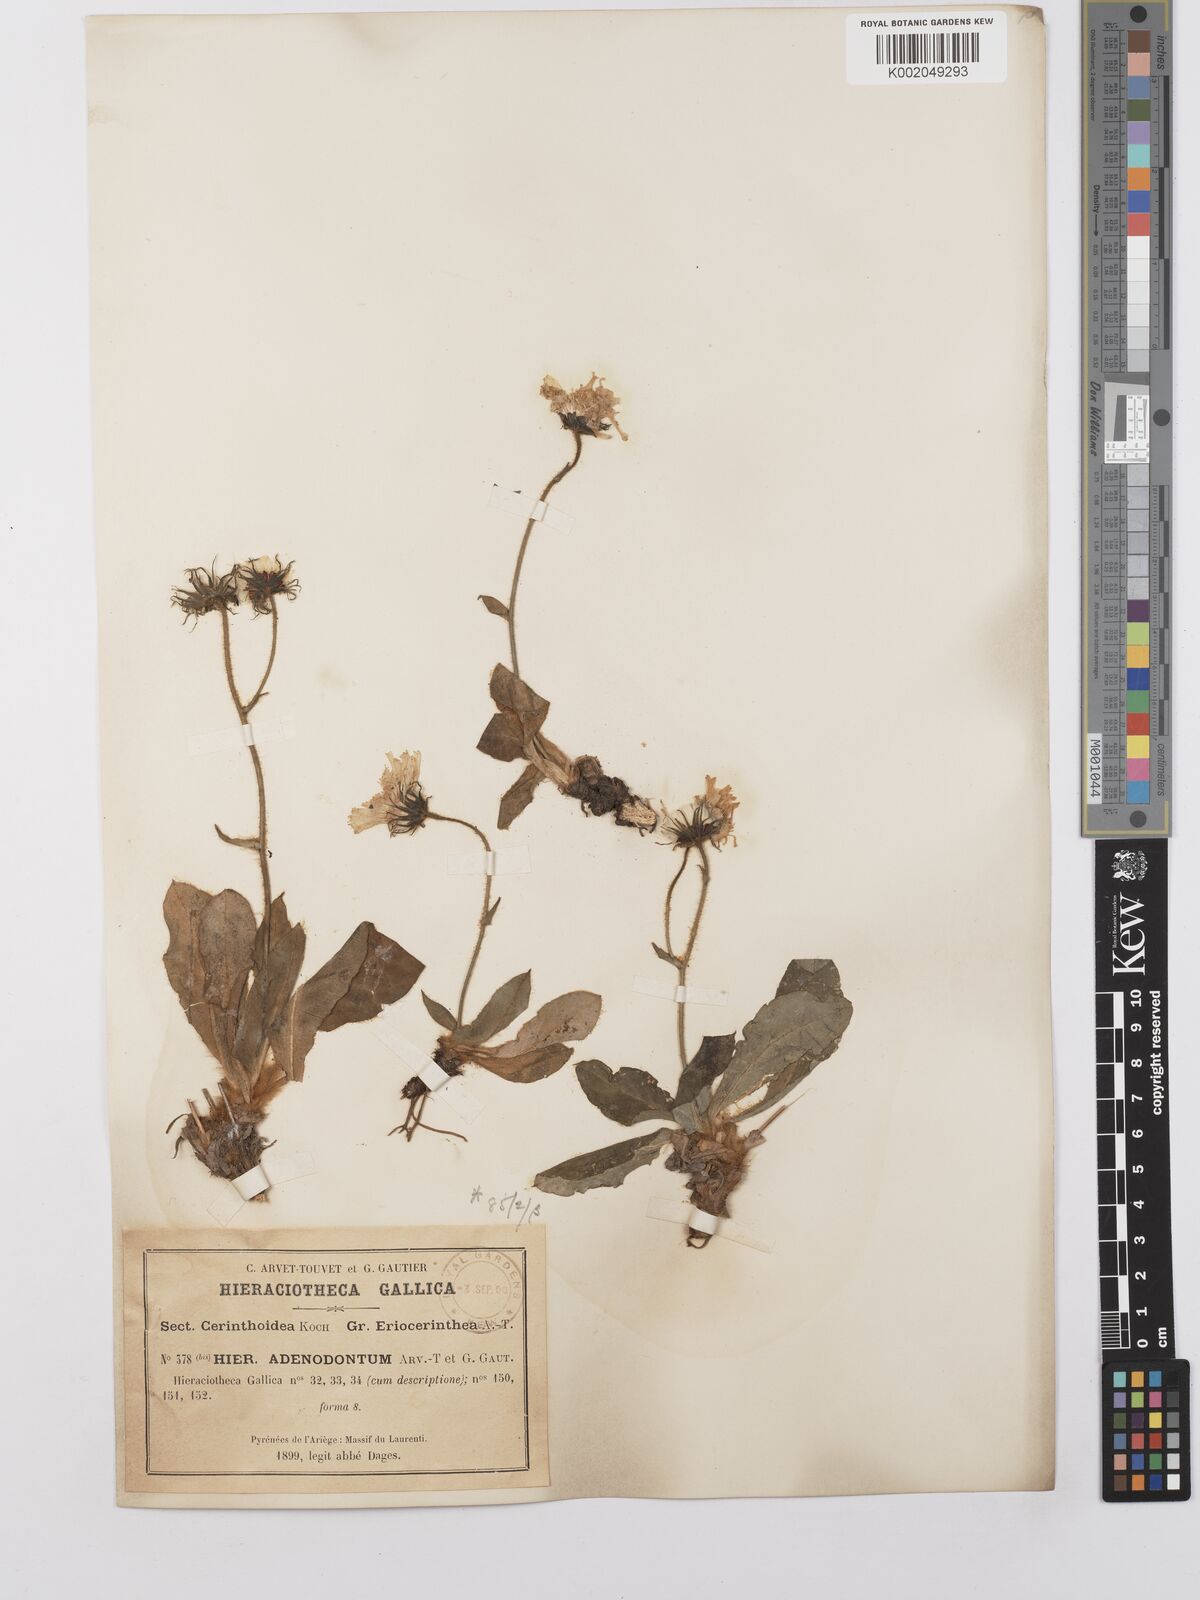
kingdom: Plantae
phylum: Tracheophyta
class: Magnoliopsida
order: Asterales
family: Asteraceae
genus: Hieracium
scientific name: Hieracium
